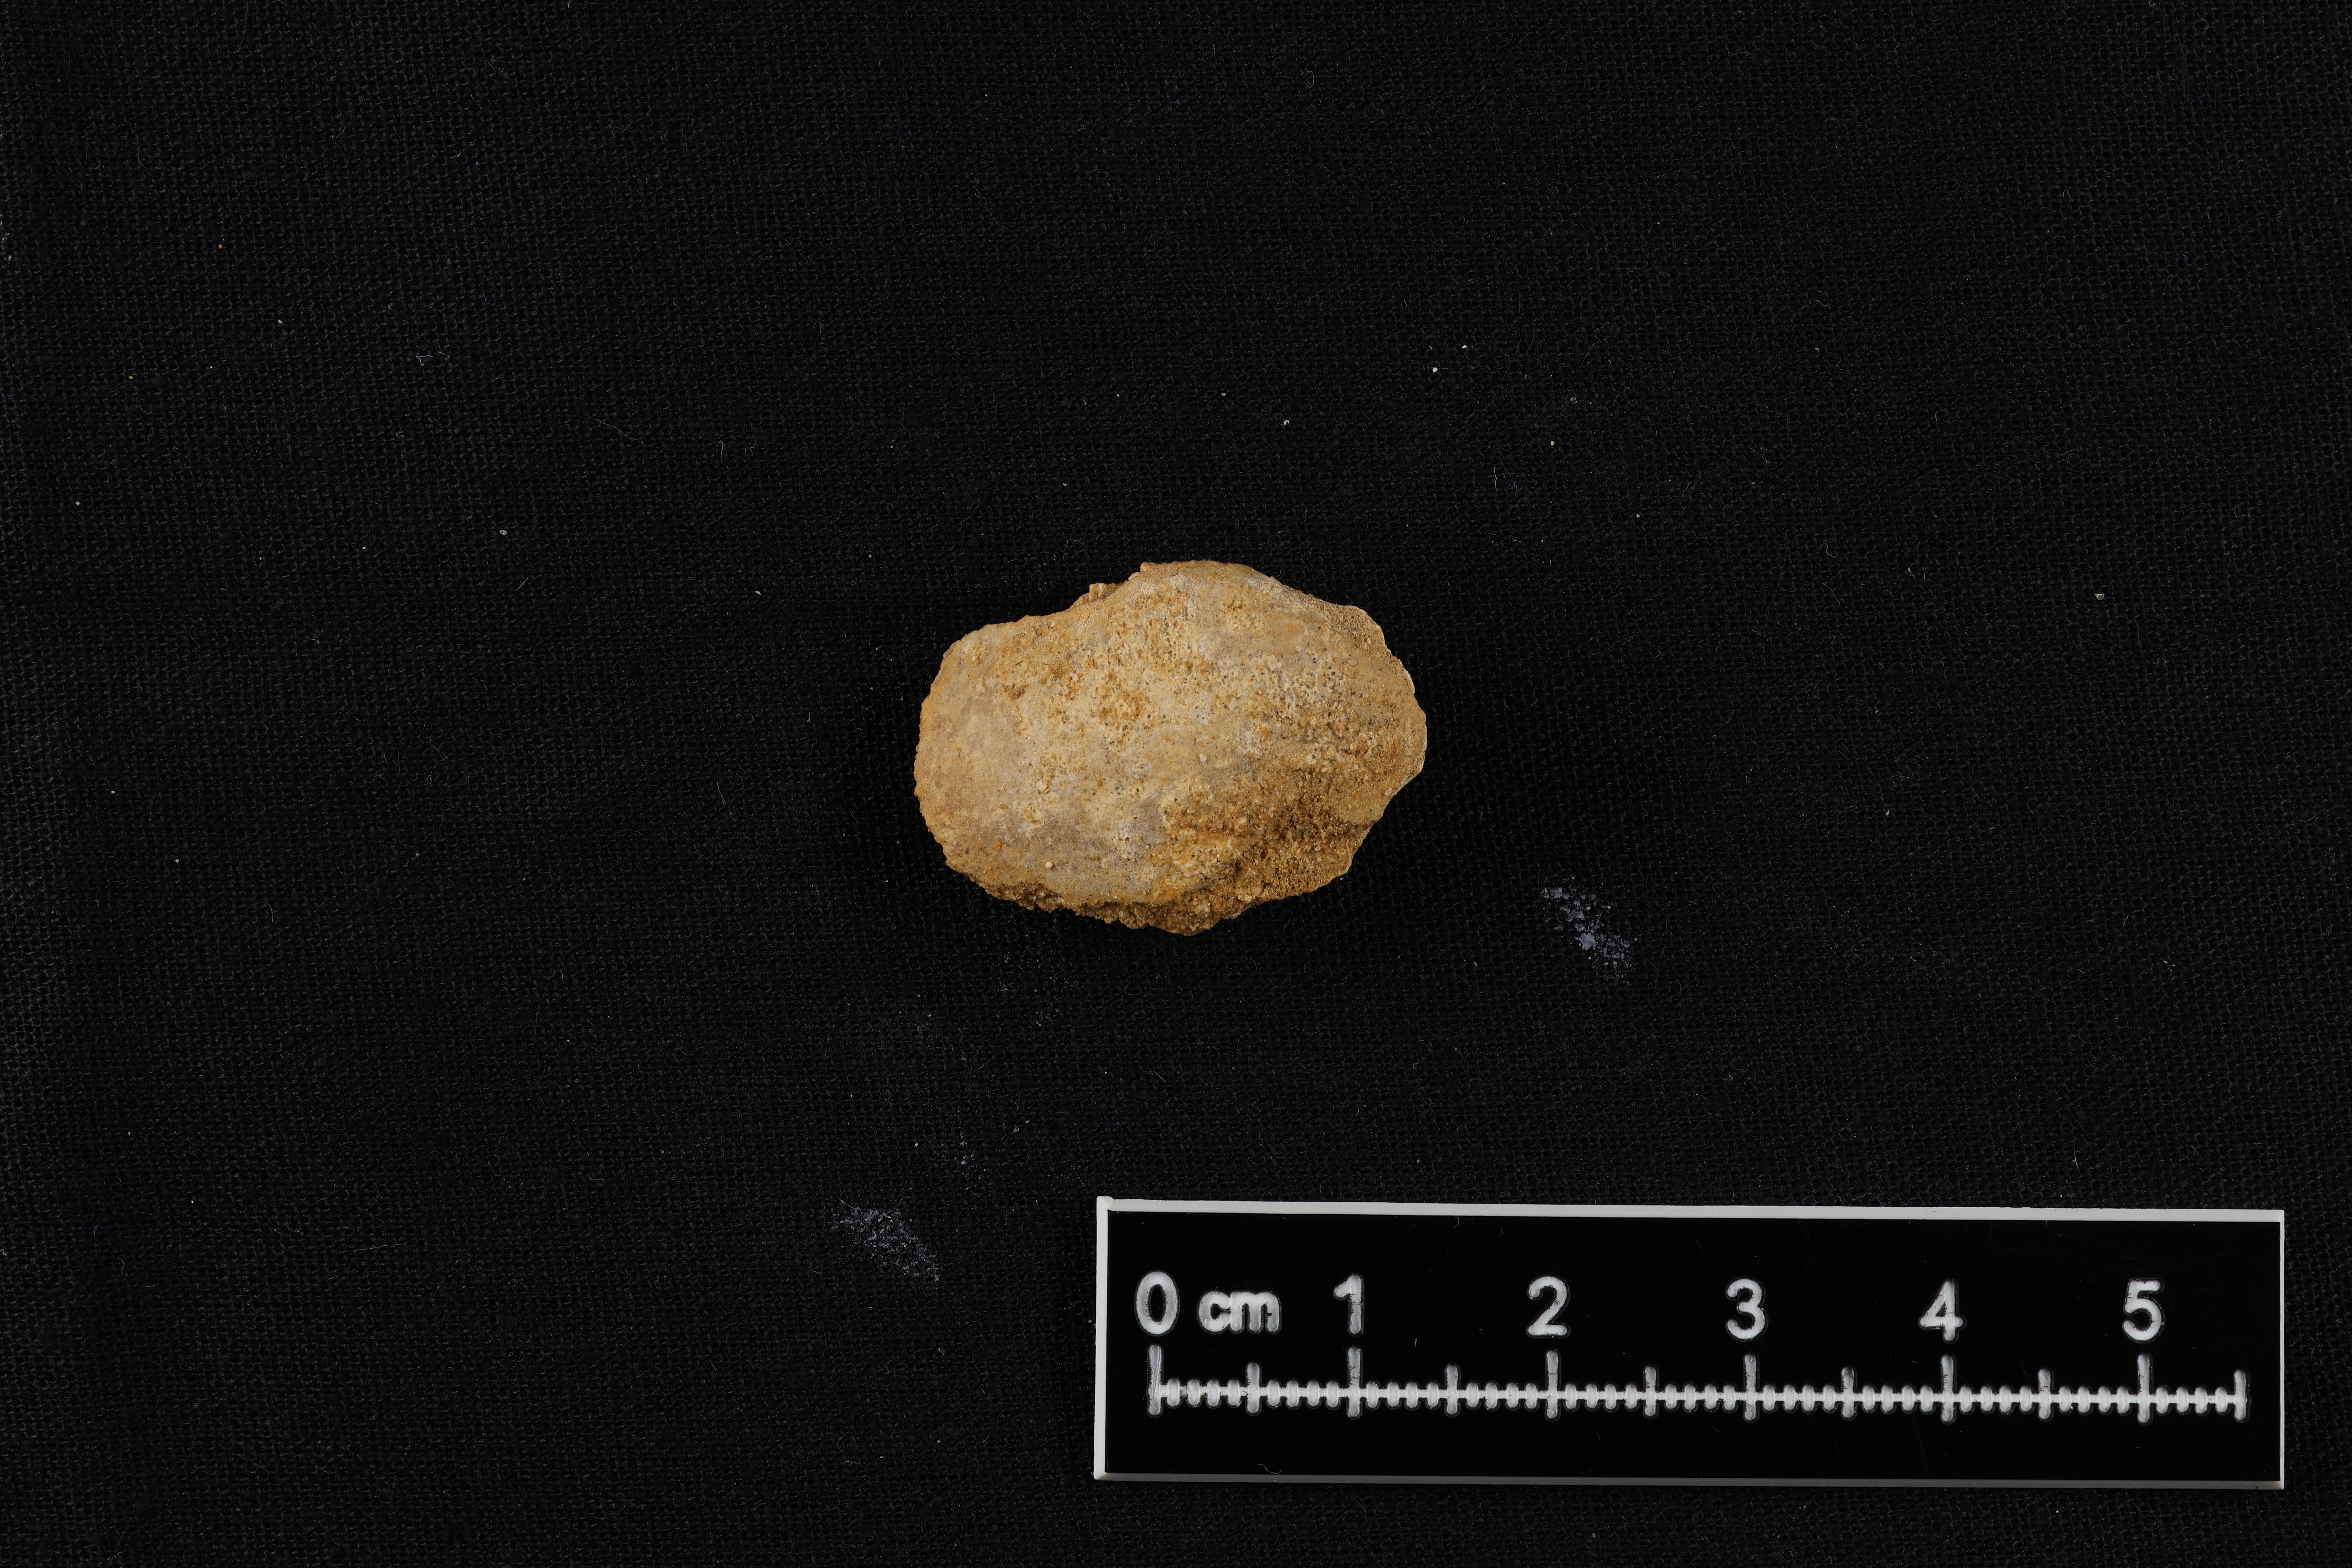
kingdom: Animalia
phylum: Mollusca
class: Bivalvia
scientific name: Bivalvia
